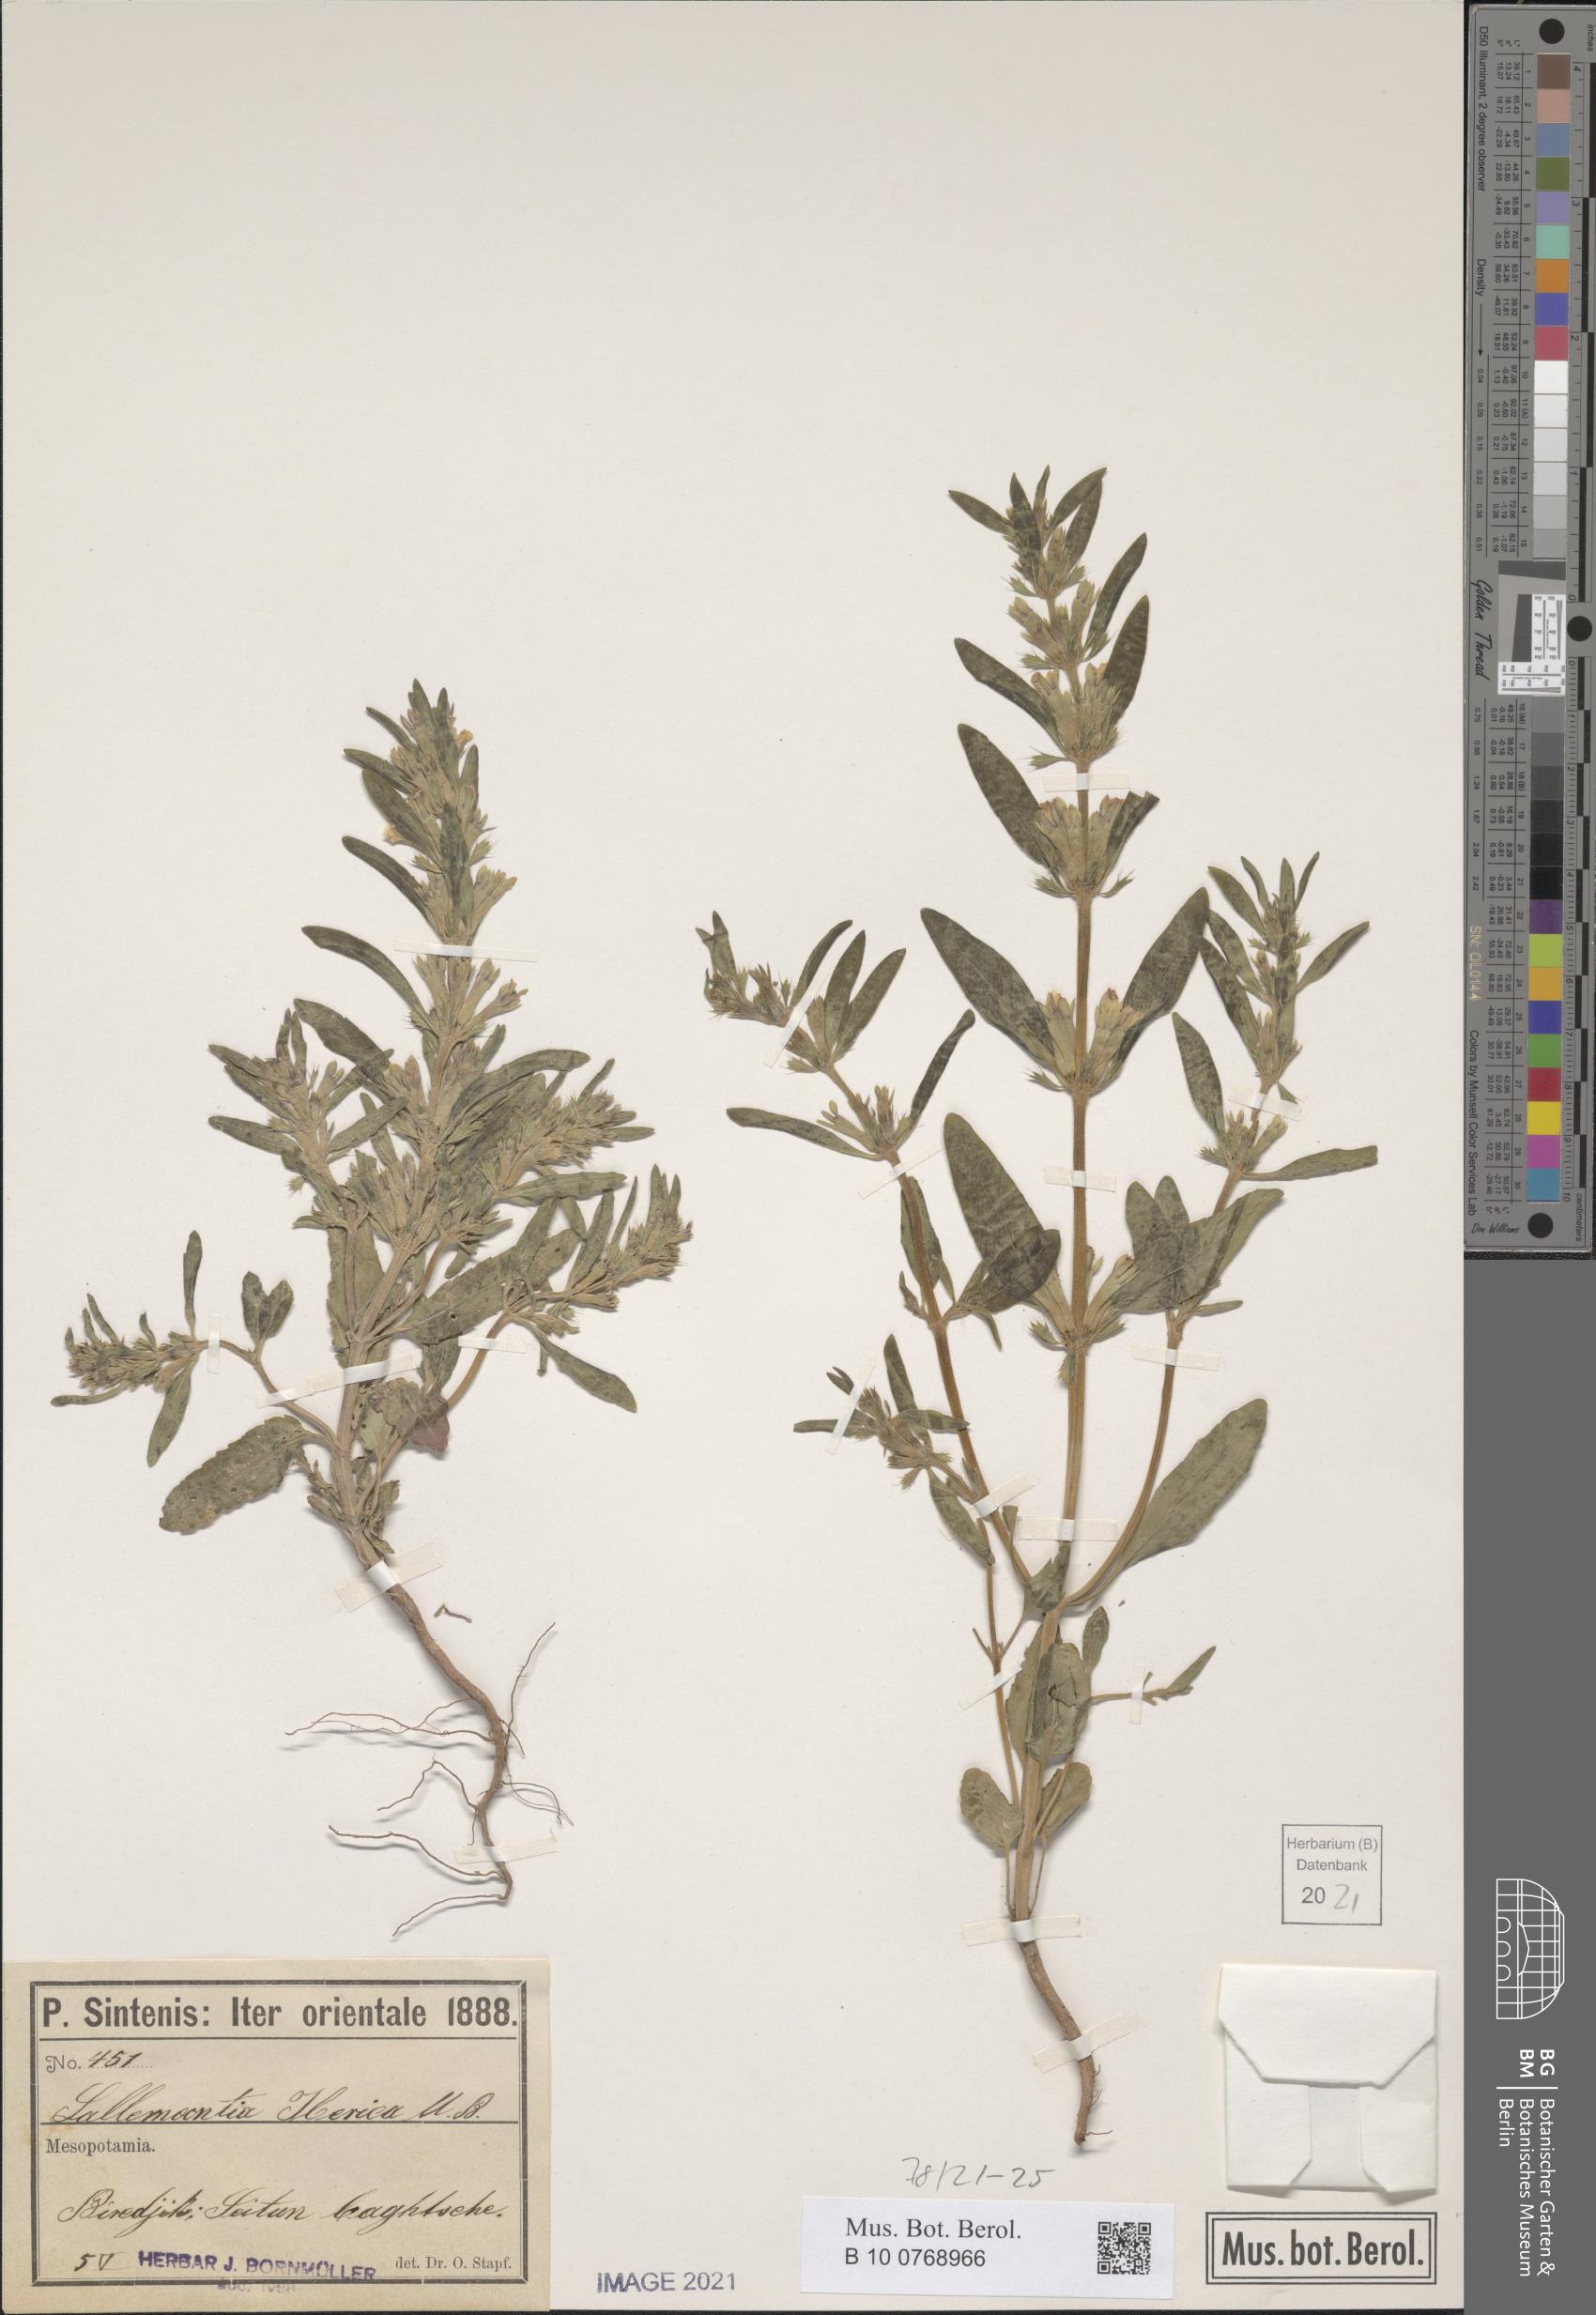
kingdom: Plantae
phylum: Tracheophyta
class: Magnoliopsida
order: Lamiales
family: Lamiaceae
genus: Lallemantia
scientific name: Lallemantia iberica
